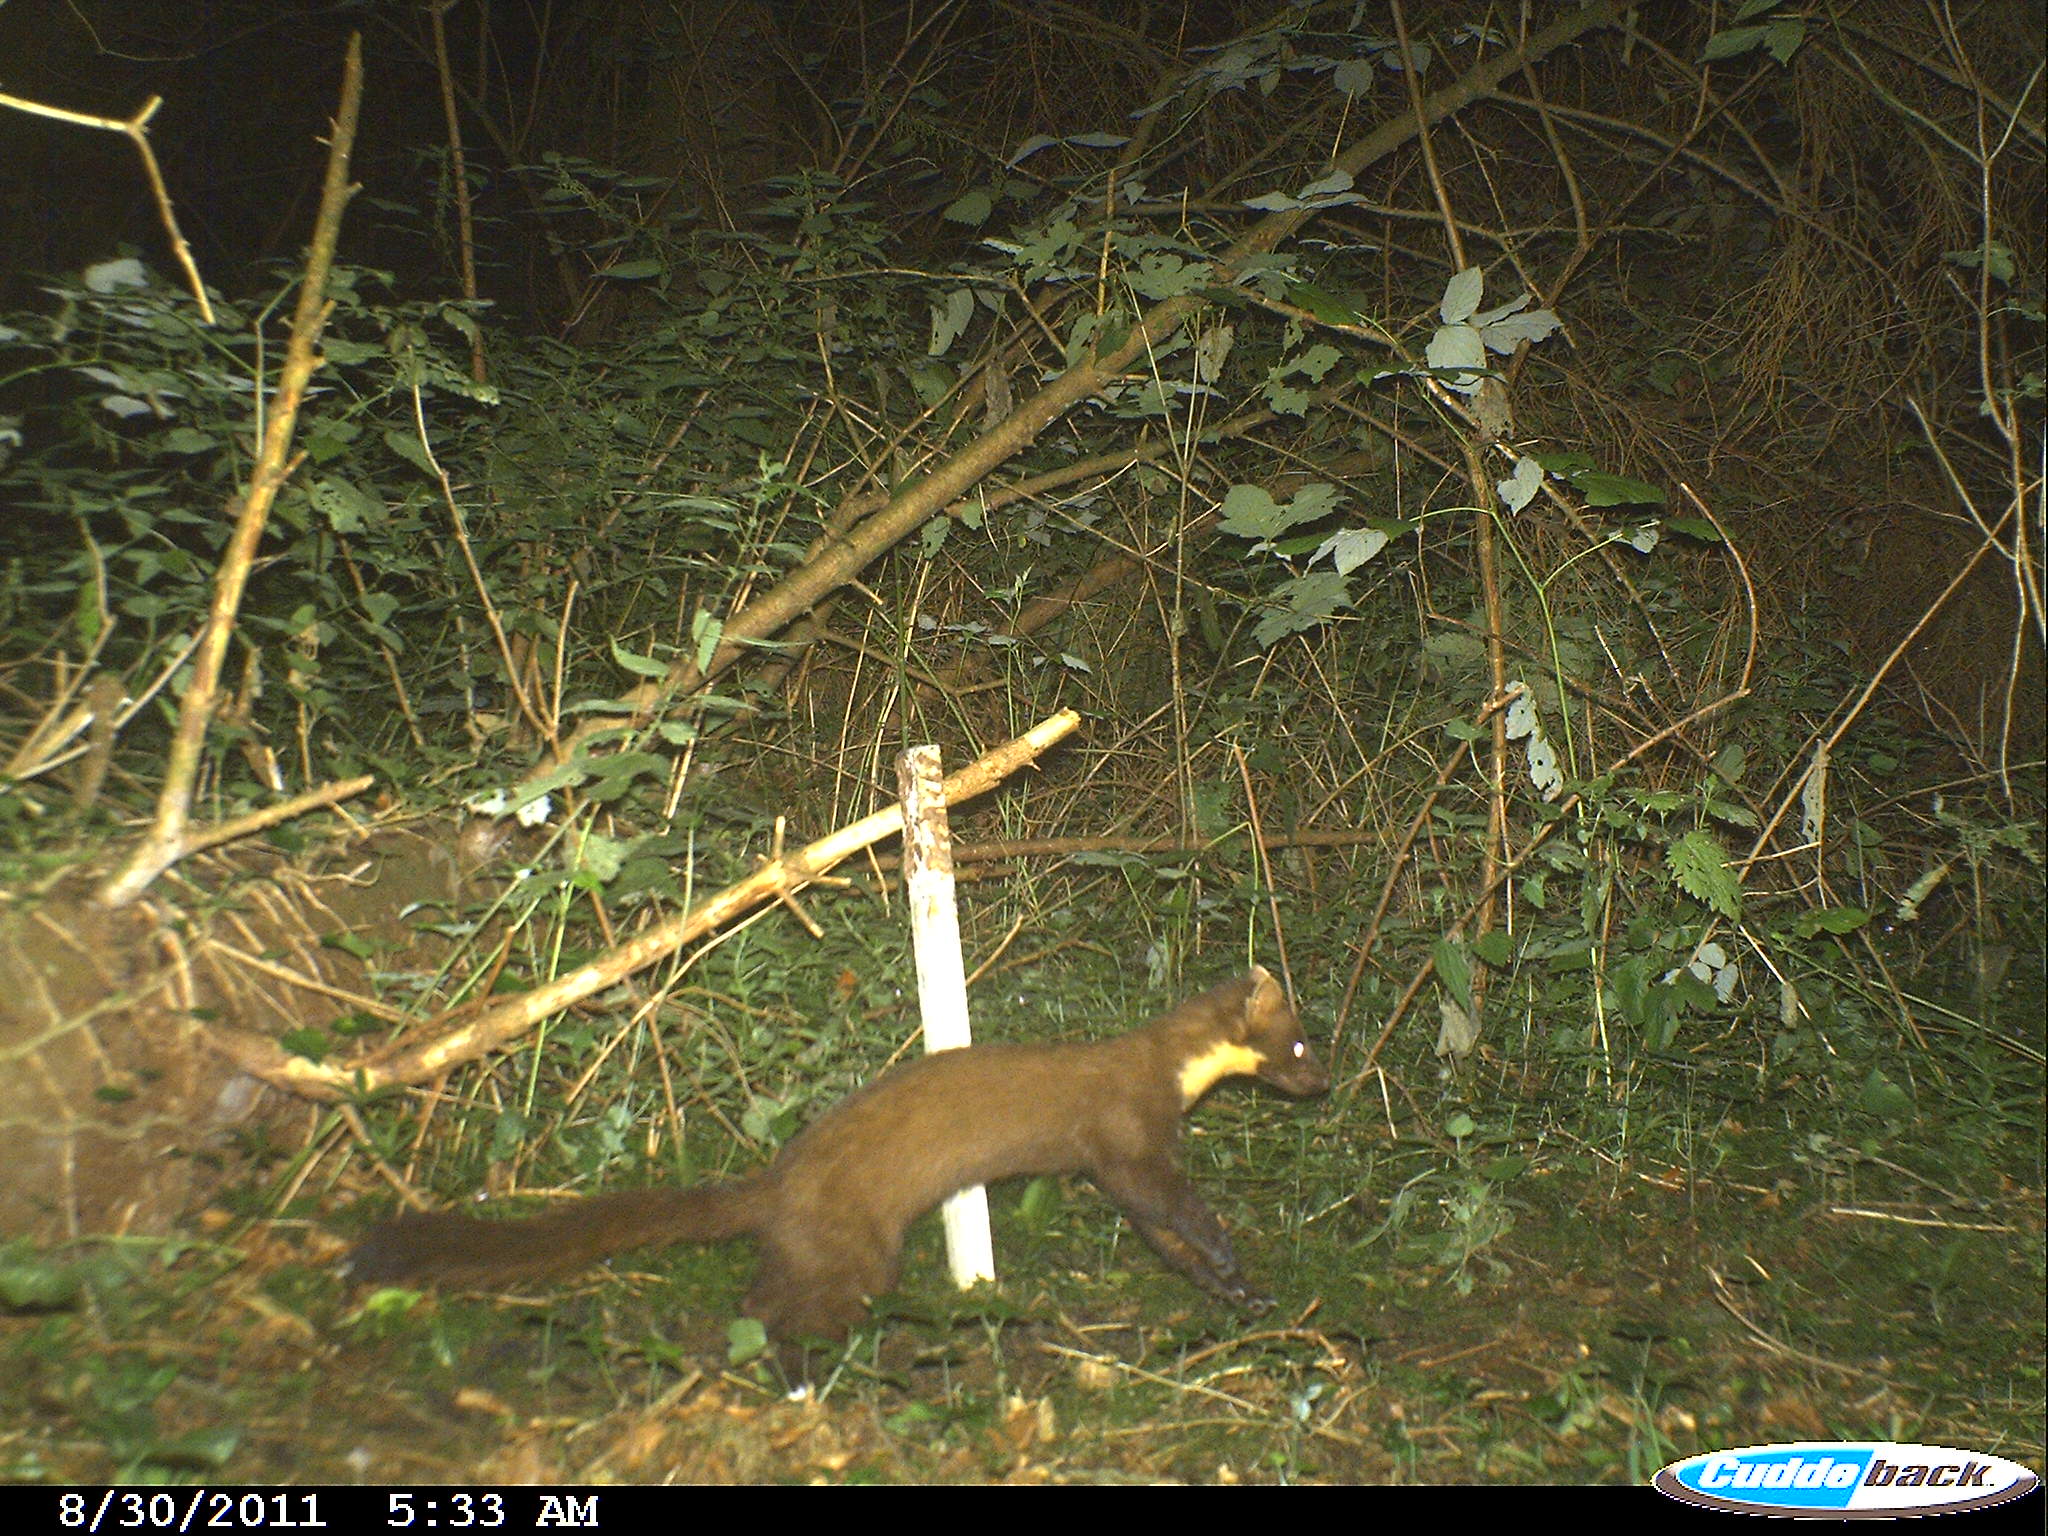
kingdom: Animalia
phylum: Chordata
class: Mammalia
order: Carnivora
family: Mustelidae
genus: Martes
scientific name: Martes martes
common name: European pine marten
